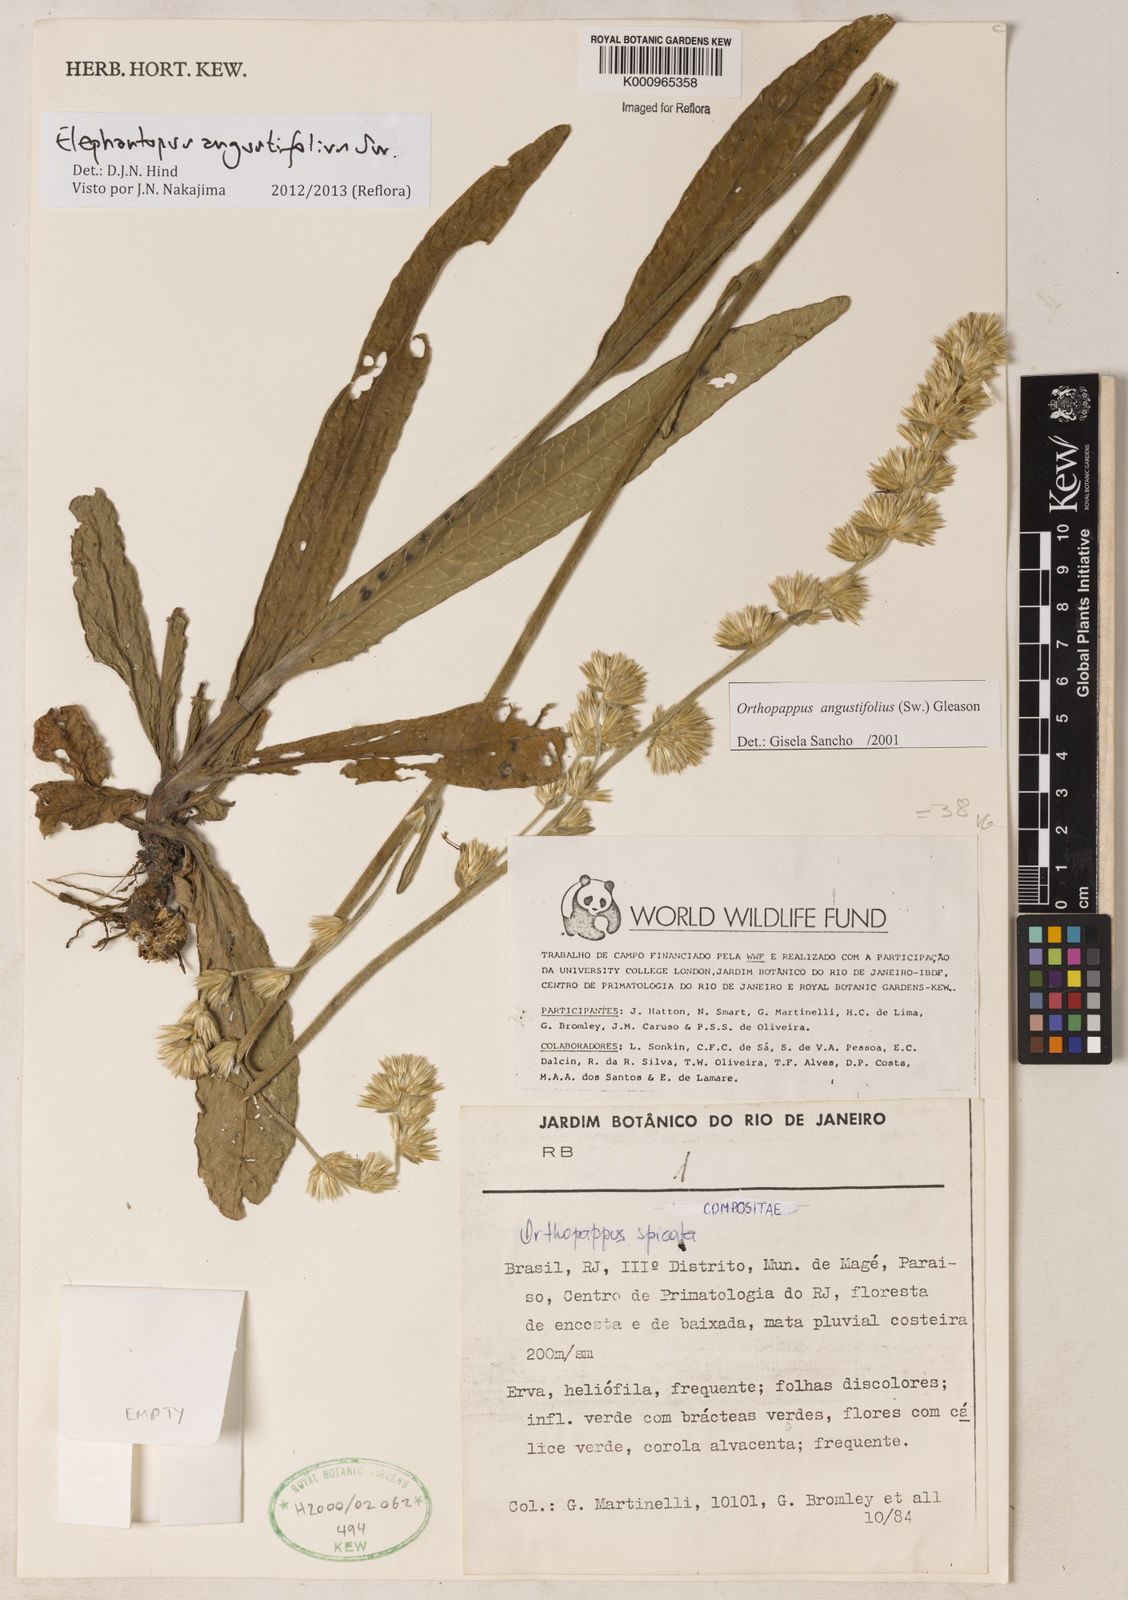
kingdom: Plantae
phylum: Tracheophyta
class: Magnoliopsida
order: Asterales
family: Asteraceae
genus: Orthopappus
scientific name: Orthopappus angustifolius
